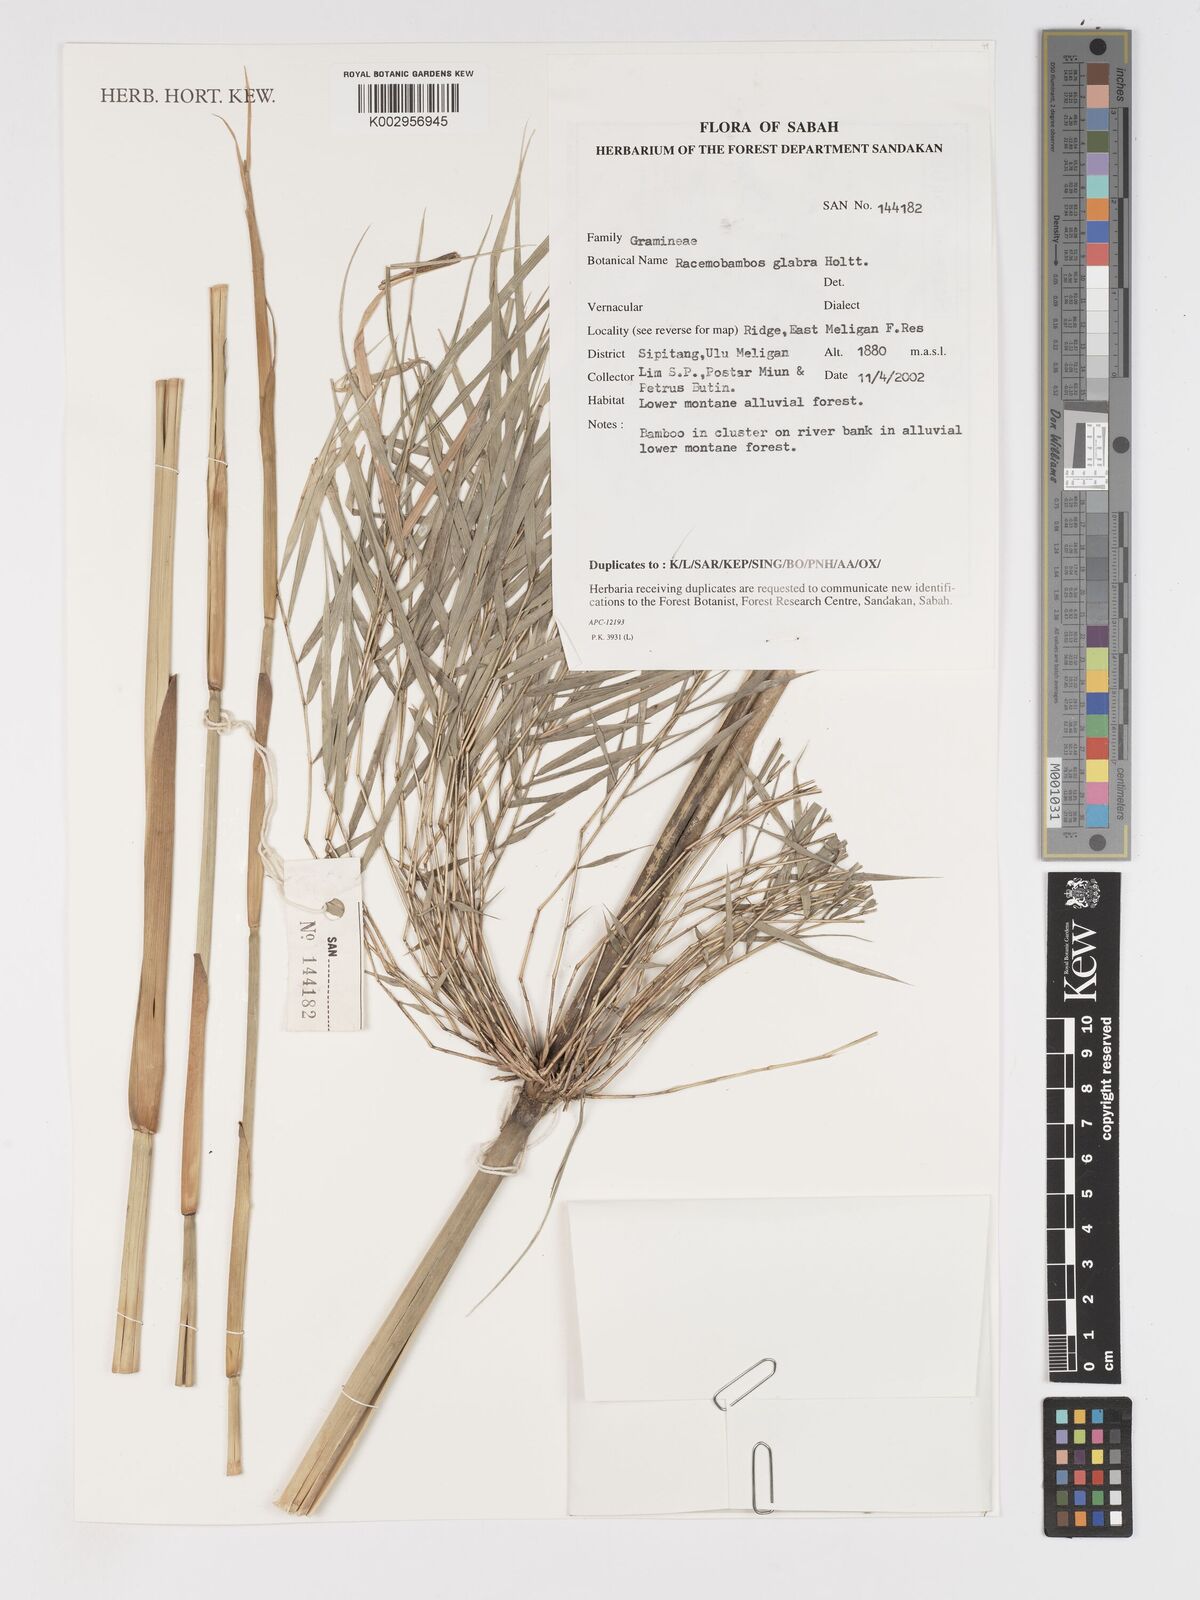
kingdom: Plantae
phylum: Tracheophyta
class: Liliopsida
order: Poales
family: Poaceae
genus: Racemobambos
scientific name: Racemobambos glabra
